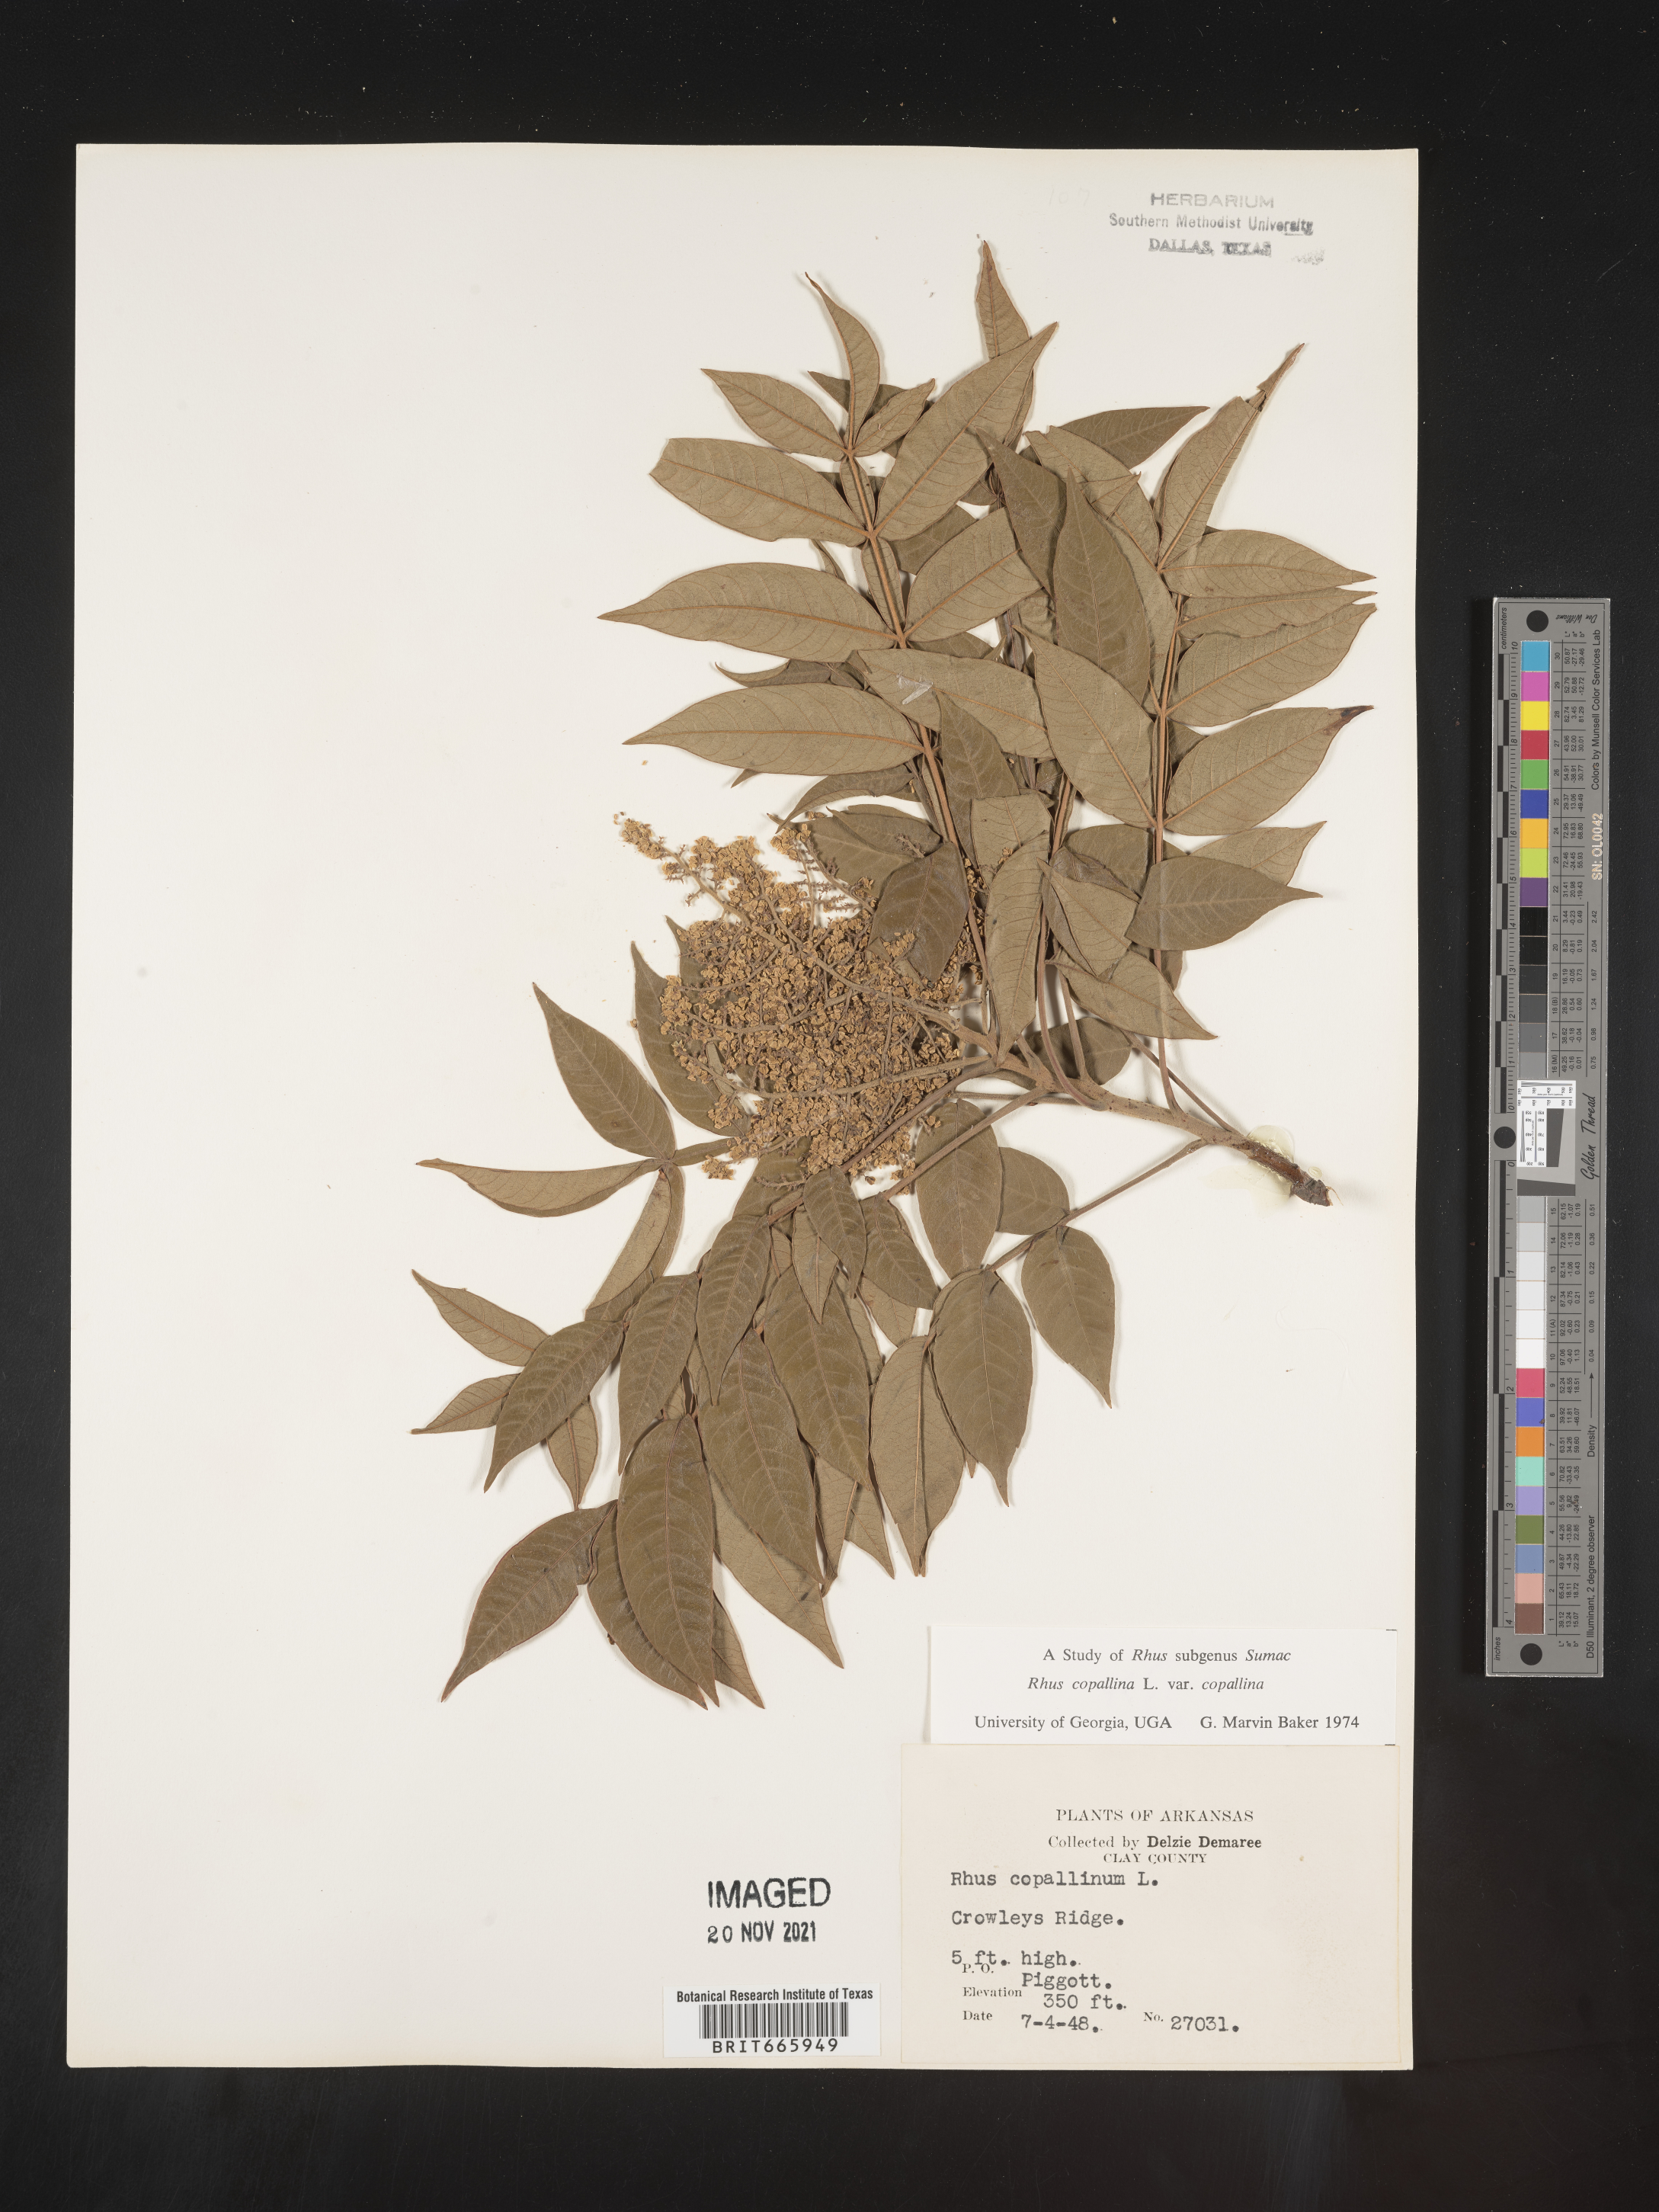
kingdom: Plantae
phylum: Tracheophyta
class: Magnoliopsida
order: Sapindales
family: Anacardiaceae
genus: Rhus
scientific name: Rhus copallina
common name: Shining sumac
